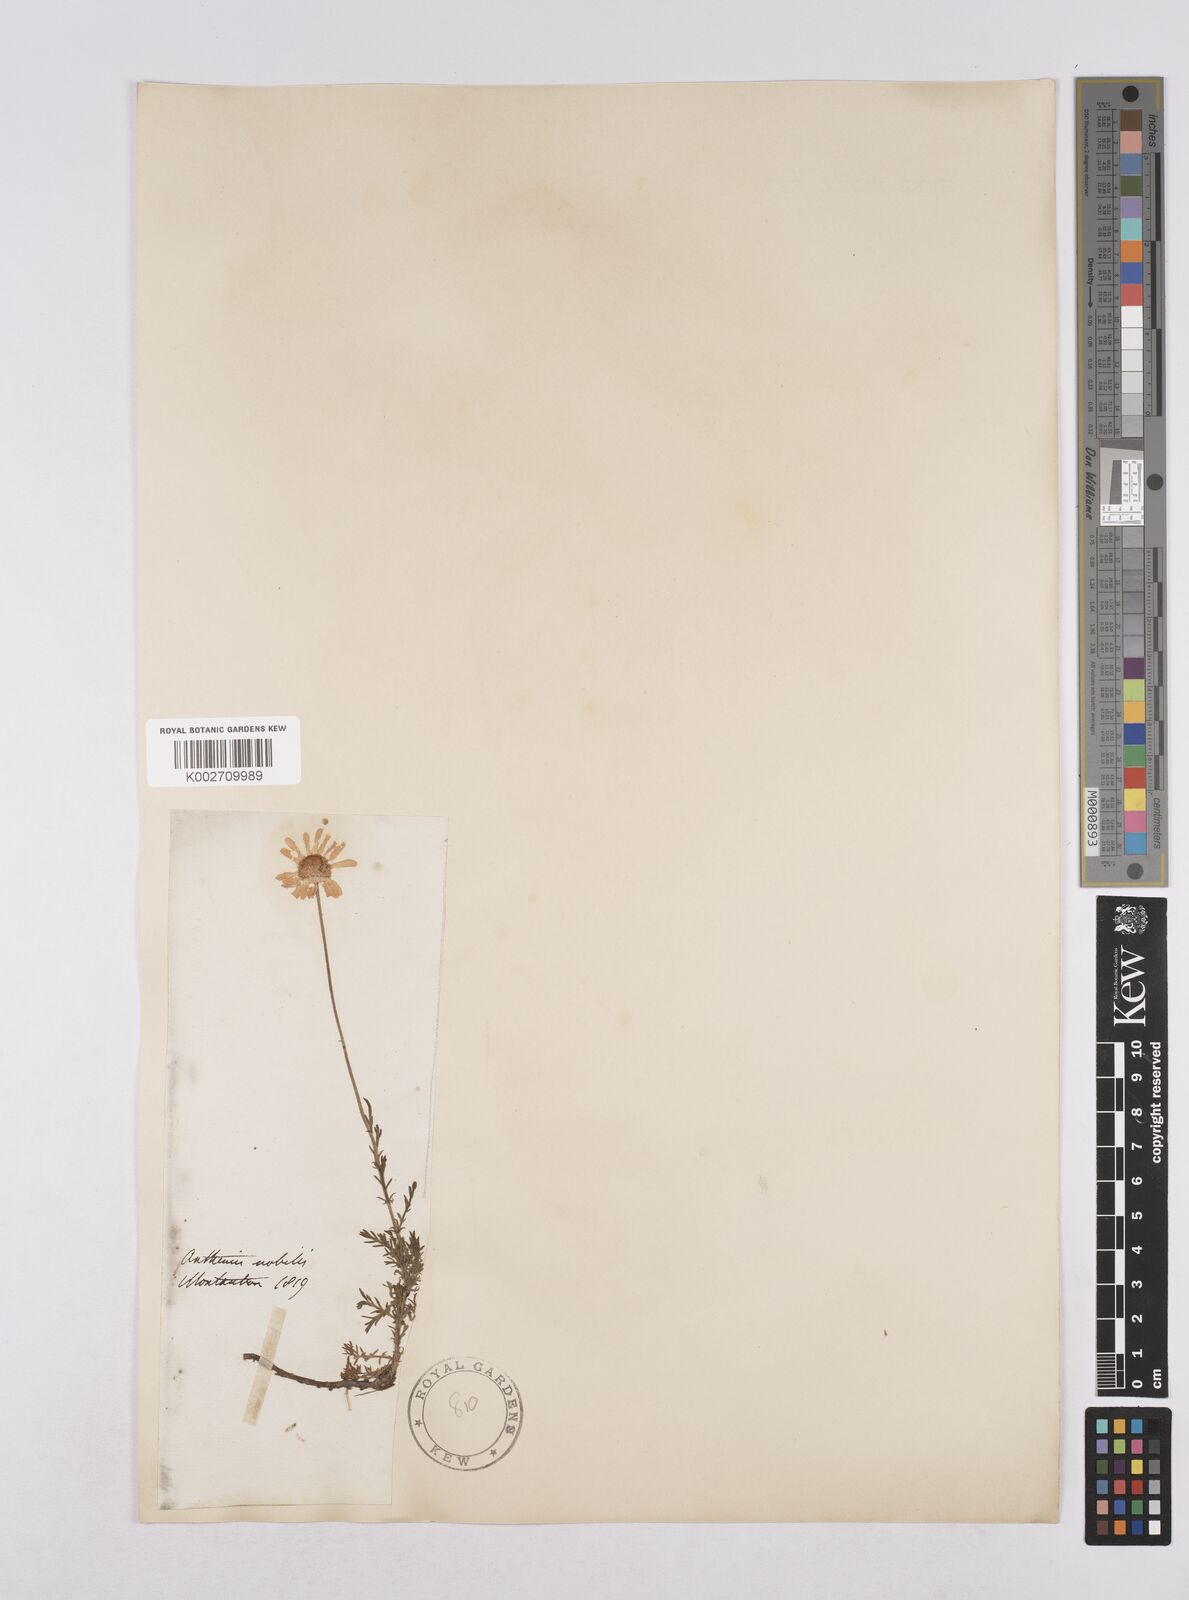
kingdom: Plantae
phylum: Tracheophyta
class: Magnoliopsida
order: Asterales
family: Asteraceae
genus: Chamaemelum
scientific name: Chamaemelum nobile
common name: Roman chamomile
